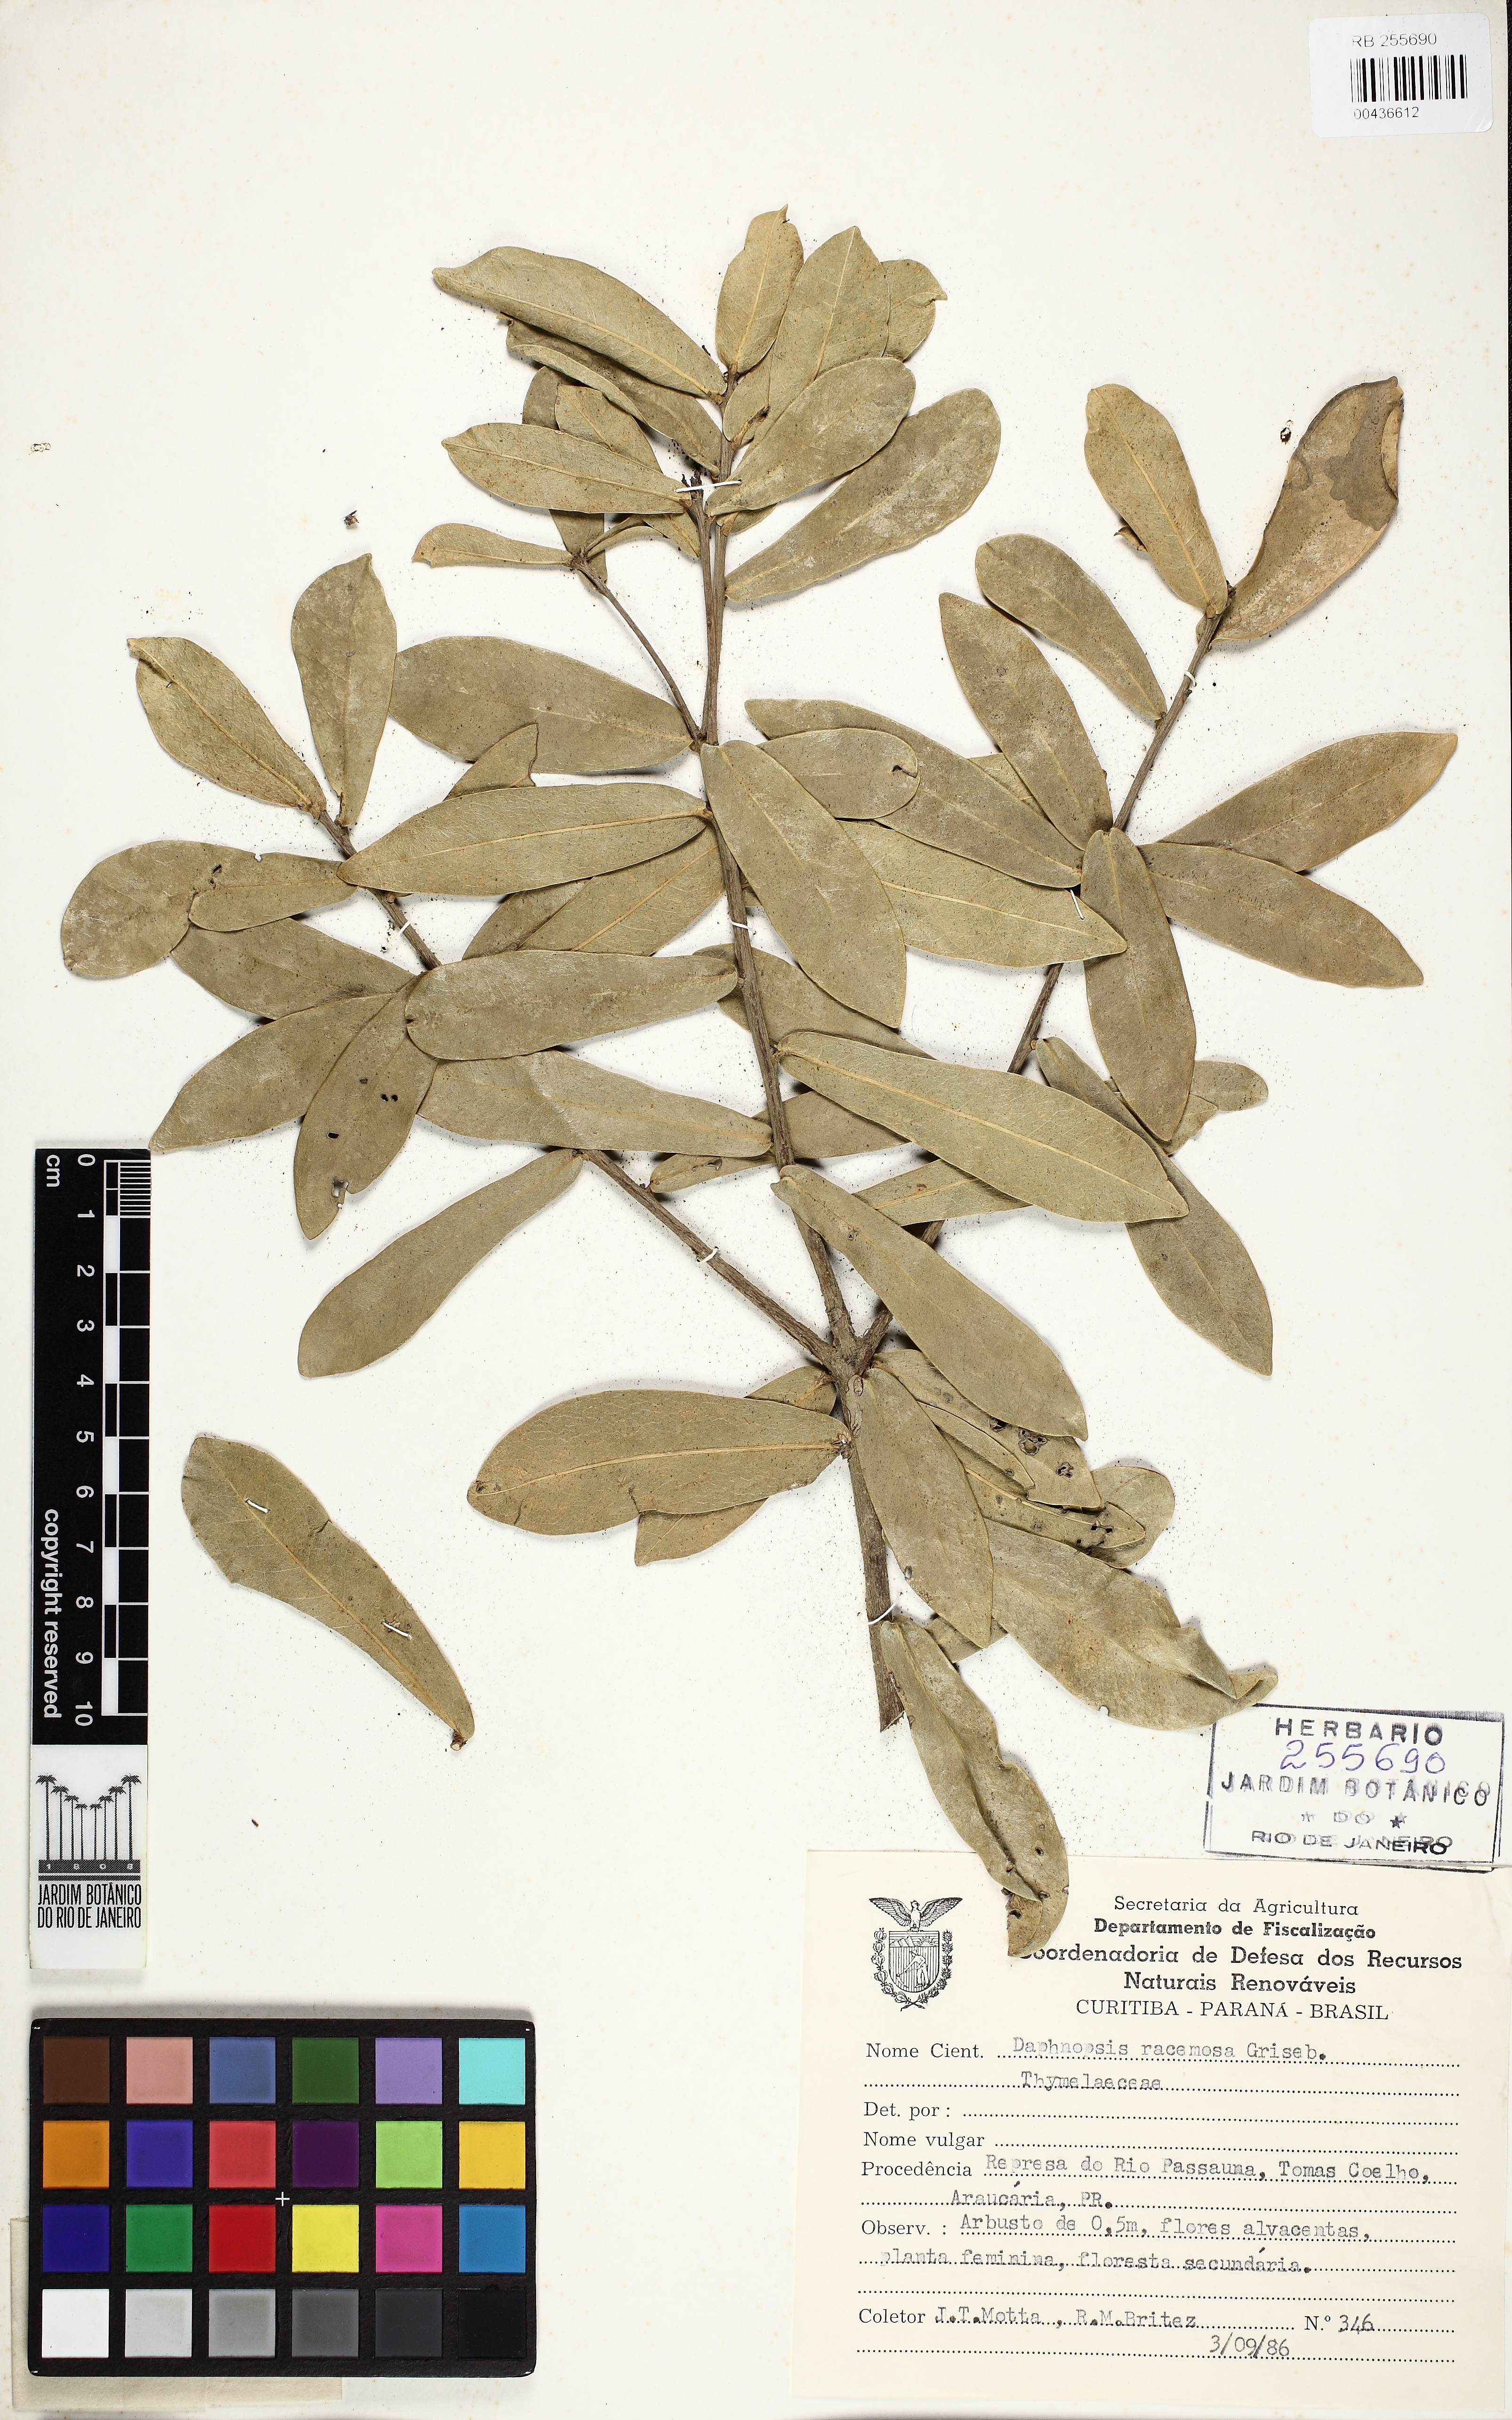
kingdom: Plantae
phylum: Tracheophyta
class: Magnoliopsida
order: Malvales
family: Thymelaeaceae
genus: Daphnopsis
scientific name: Daphnopsis racemosa
